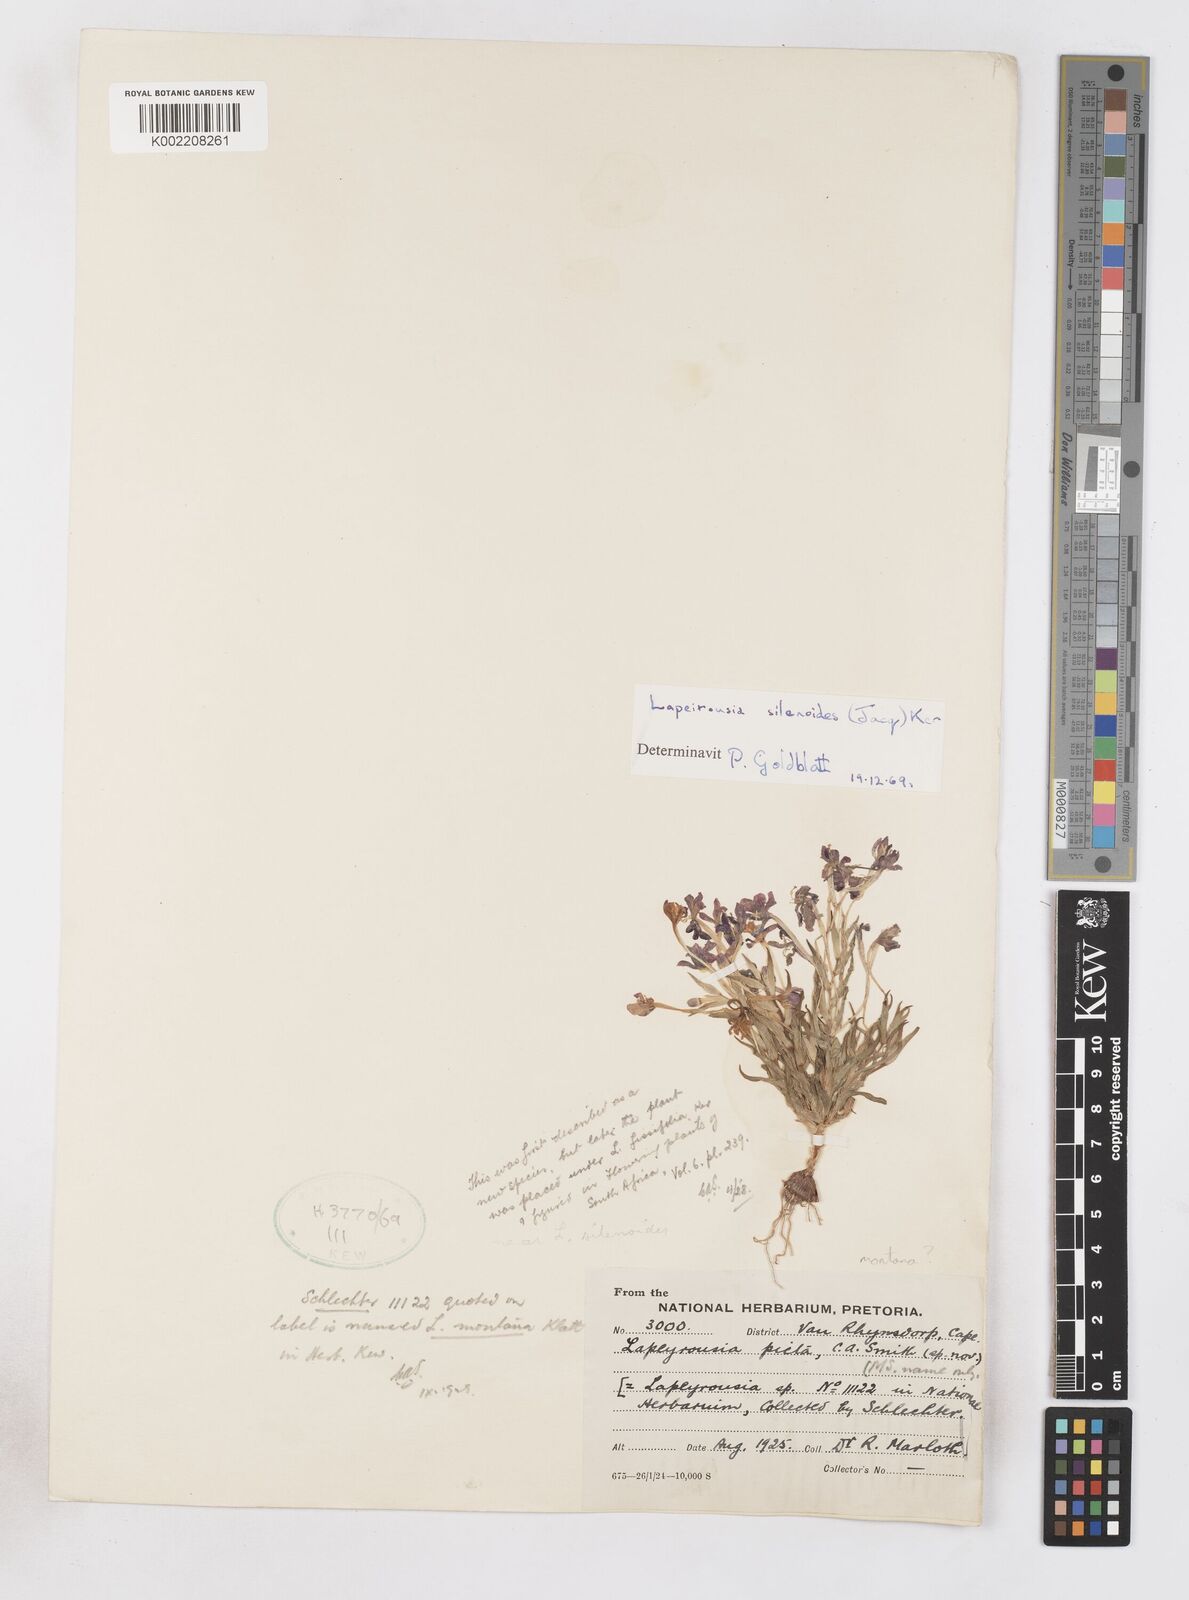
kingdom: Plantae
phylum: Tracheophyta
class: Liliopsida
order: Asparagales
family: Iridaceae
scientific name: Iridaceae
